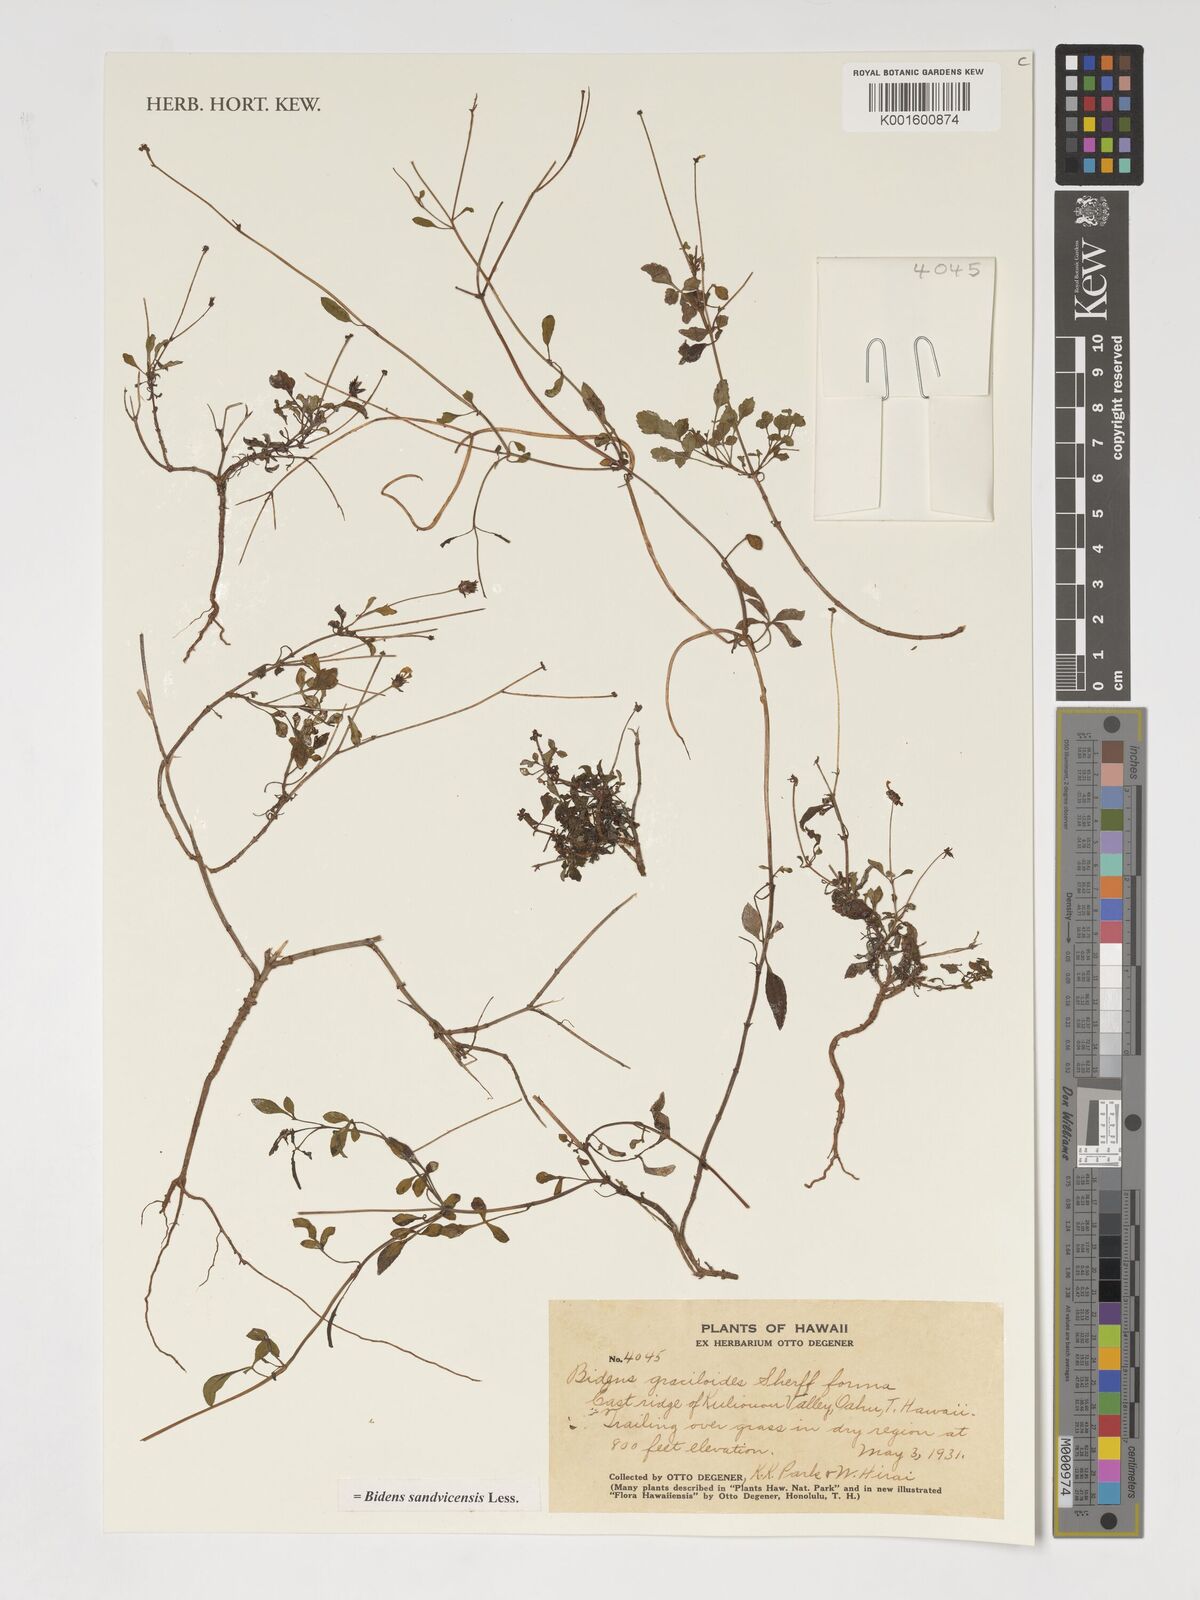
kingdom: Plantae
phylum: Tracheophyta
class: Magnoliopsida
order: Asterales
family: Asteraceae
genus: Bidens
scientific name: Bidens sandvicensis
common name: Shrubland beggarticks
